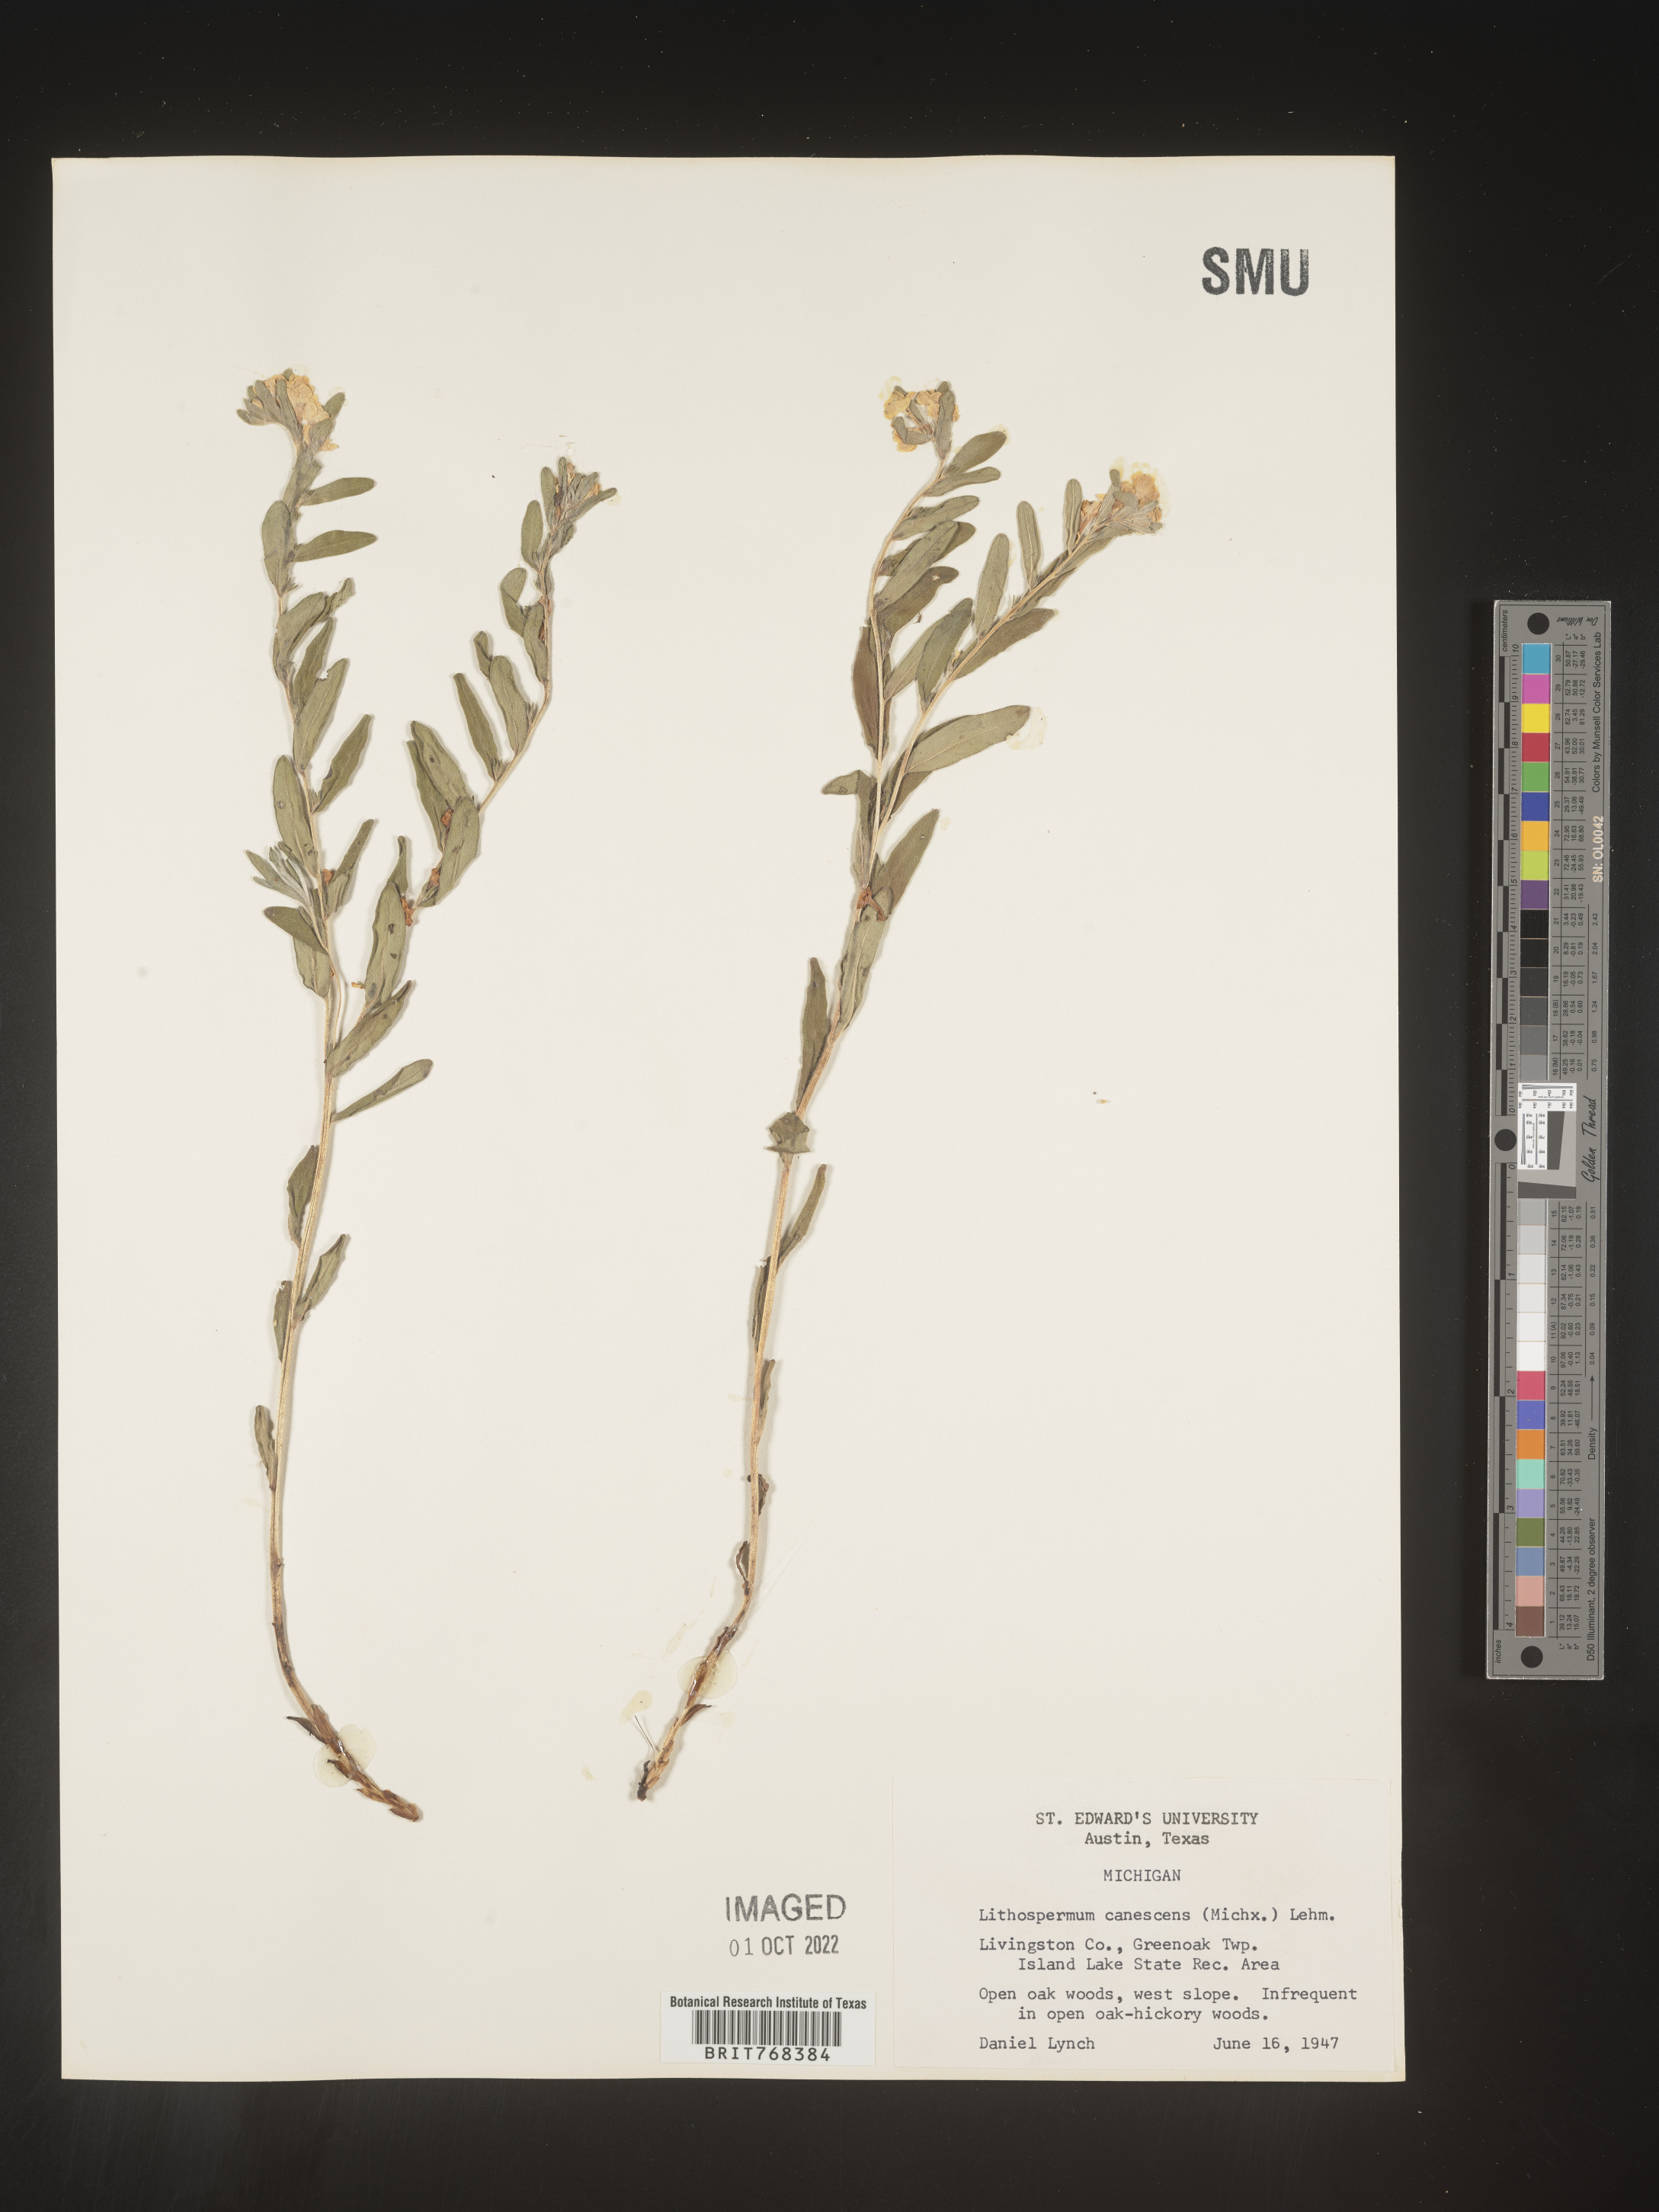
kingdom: Plantae
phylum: Tracheophyta
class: Magnoliopsida
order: Boraginales
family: Boraginaceae
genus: Lithospermum
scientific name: Lithospermum canescens
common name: Hoary puccoon
